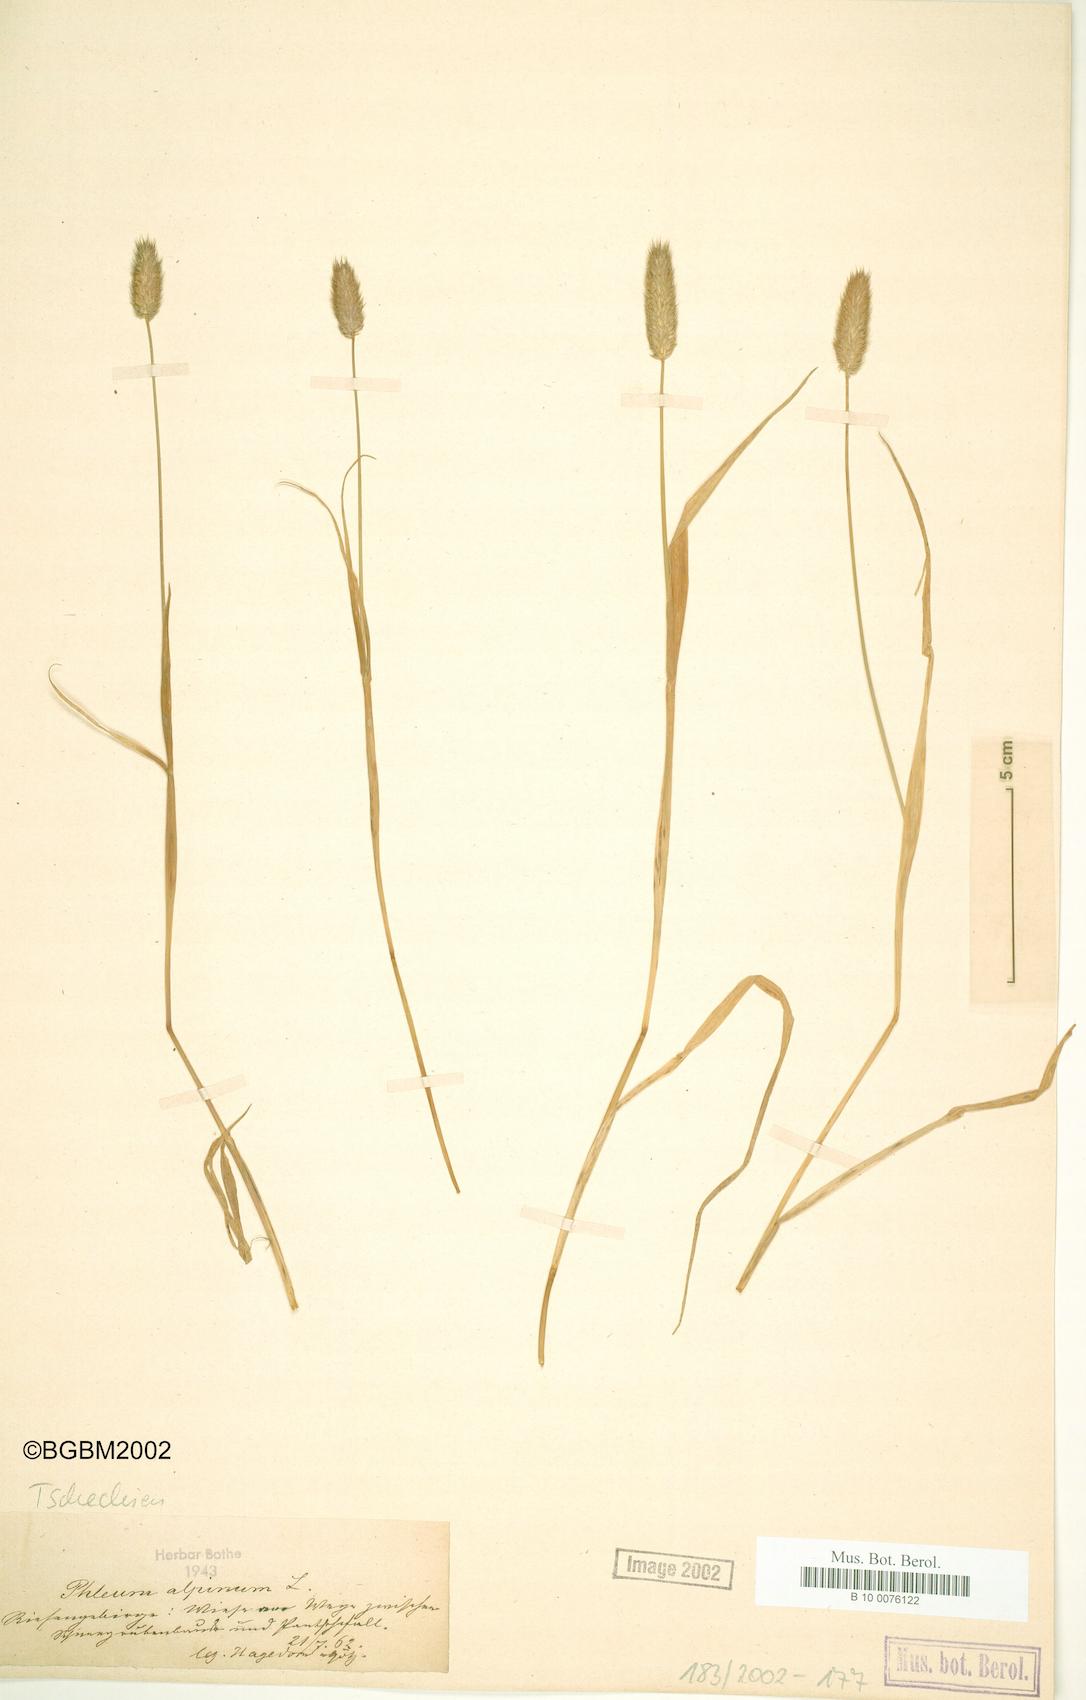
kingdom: Plantae
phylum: Tracheophyta
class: Liliopsida
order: Poales
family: Poaceae
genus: Phleum
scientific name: Phleum alpinum
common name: Alpine cat's-tail
